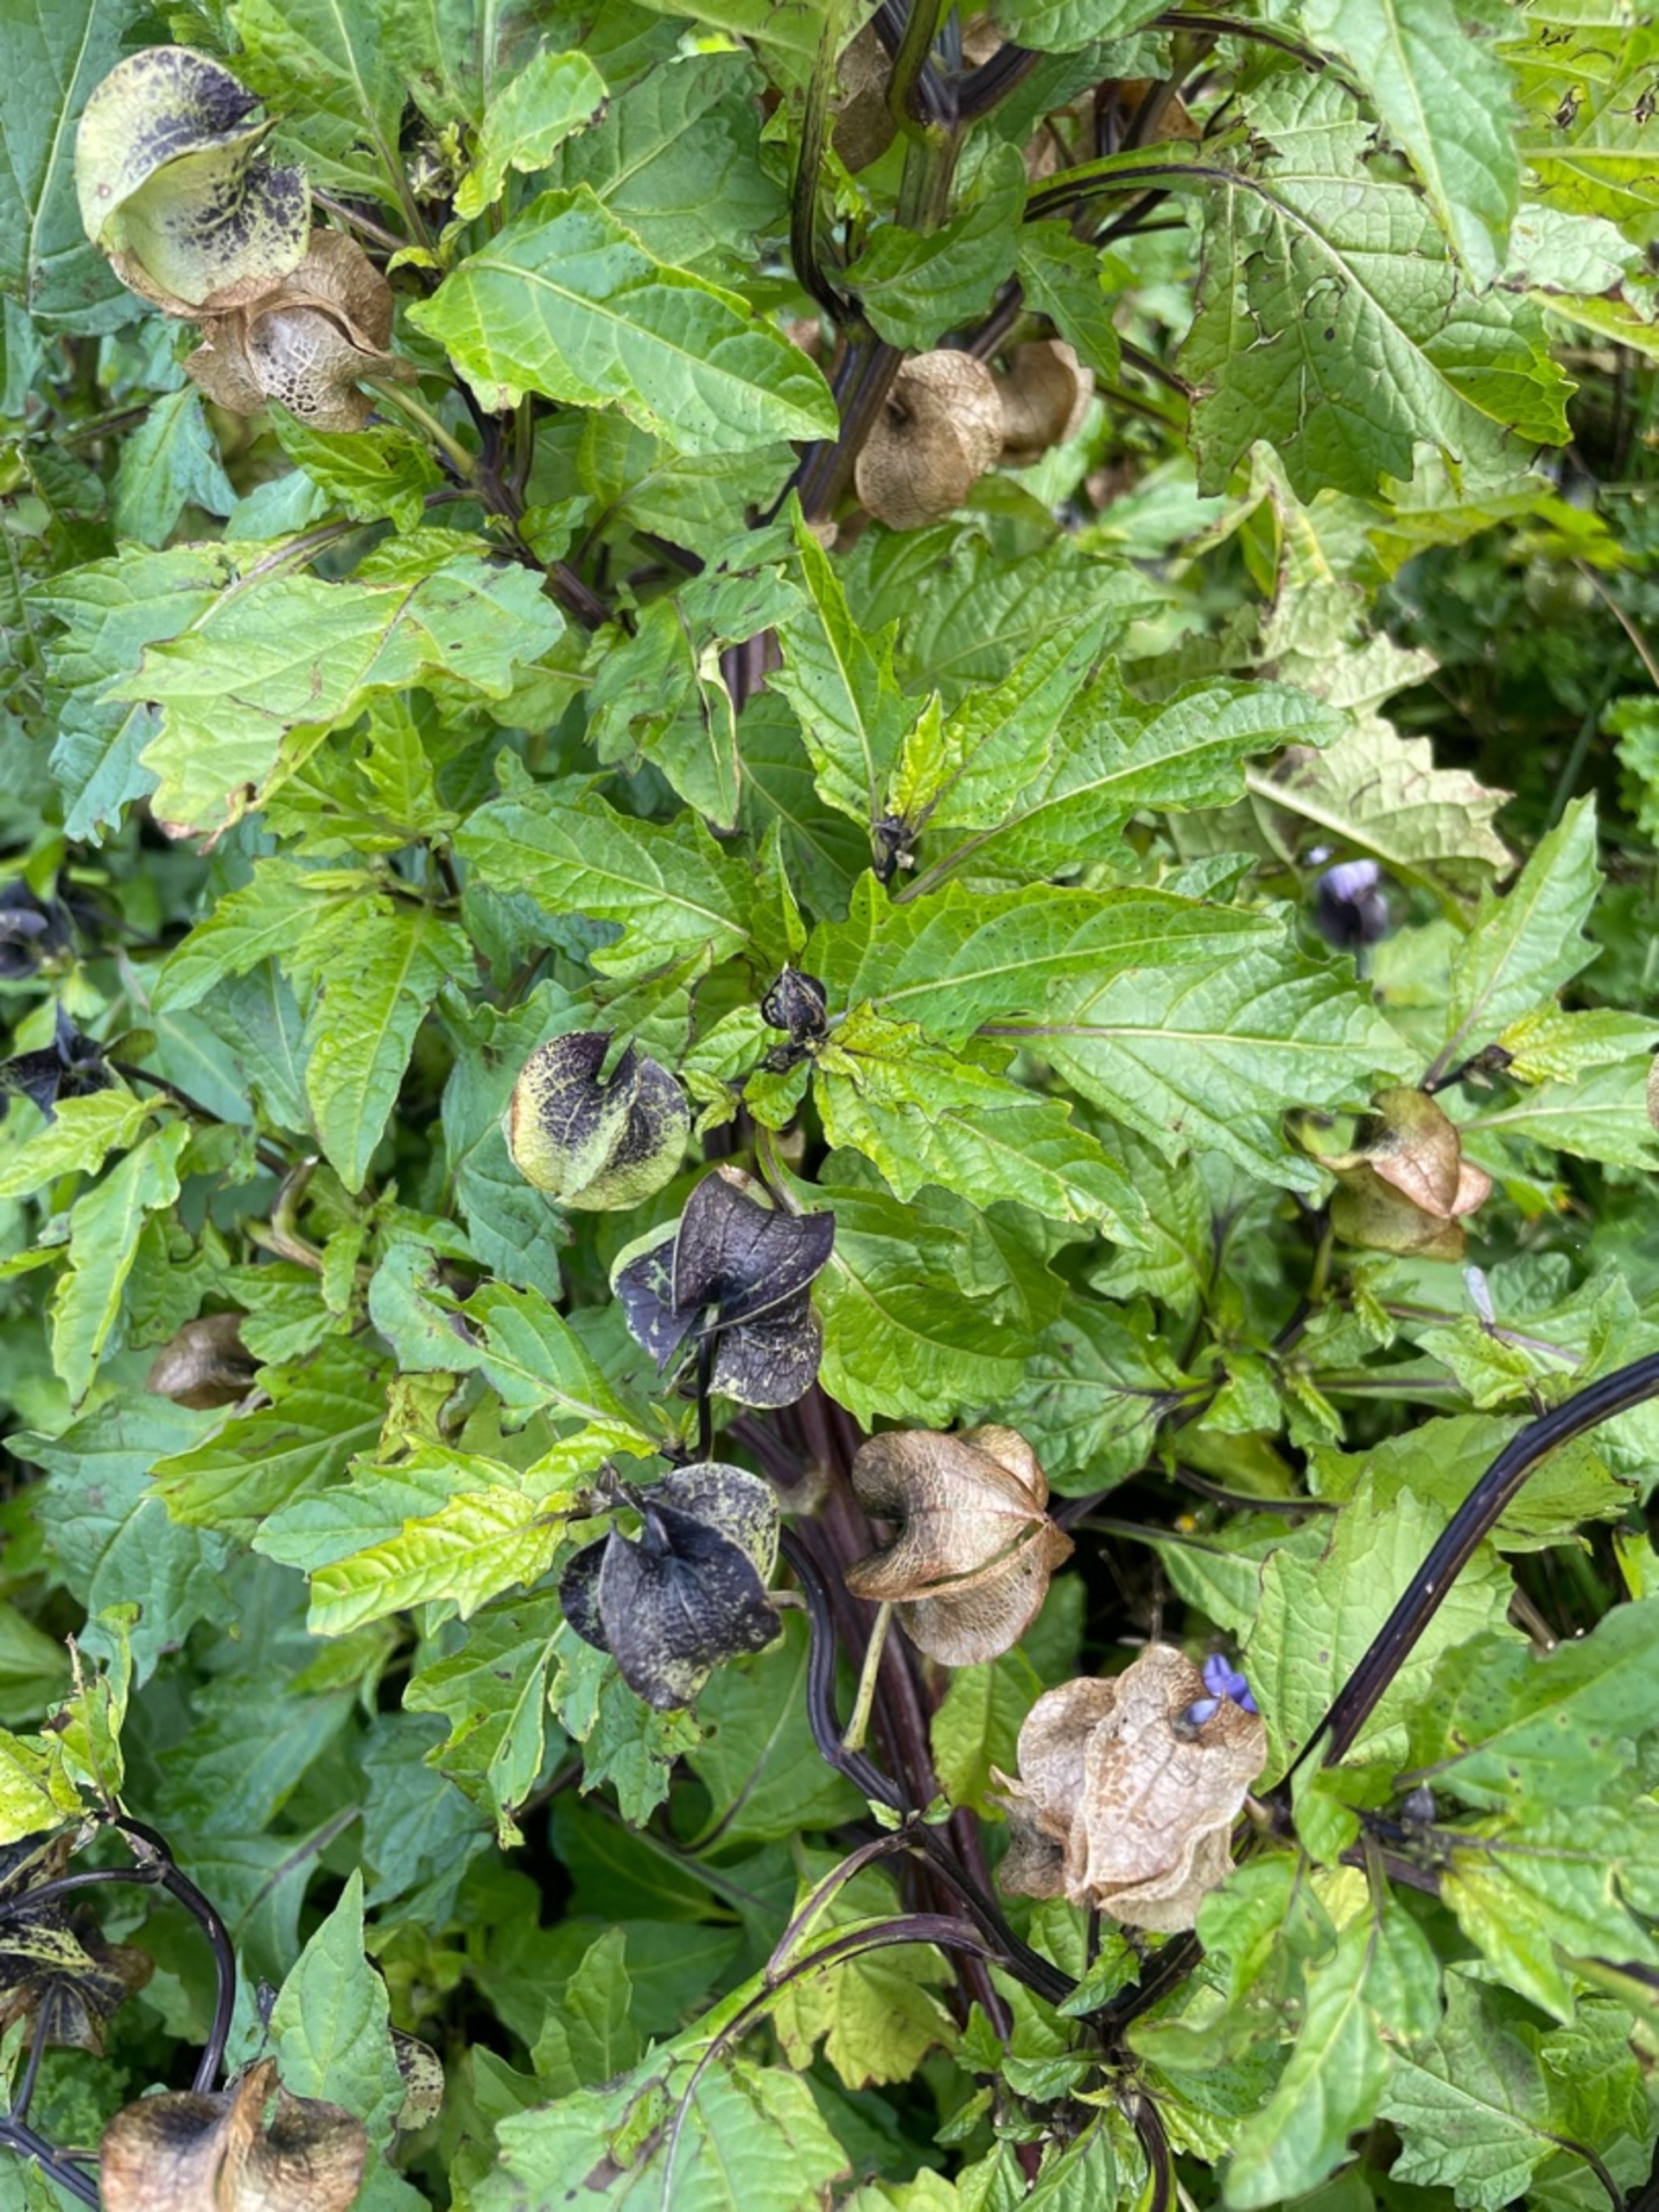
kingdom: Plantae
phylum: Tracheophyta
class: Magnoliopsida
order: Solanales
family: Solanaceae
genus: Nicandra
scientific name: Nicandra physalodes
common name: Kantbæger
